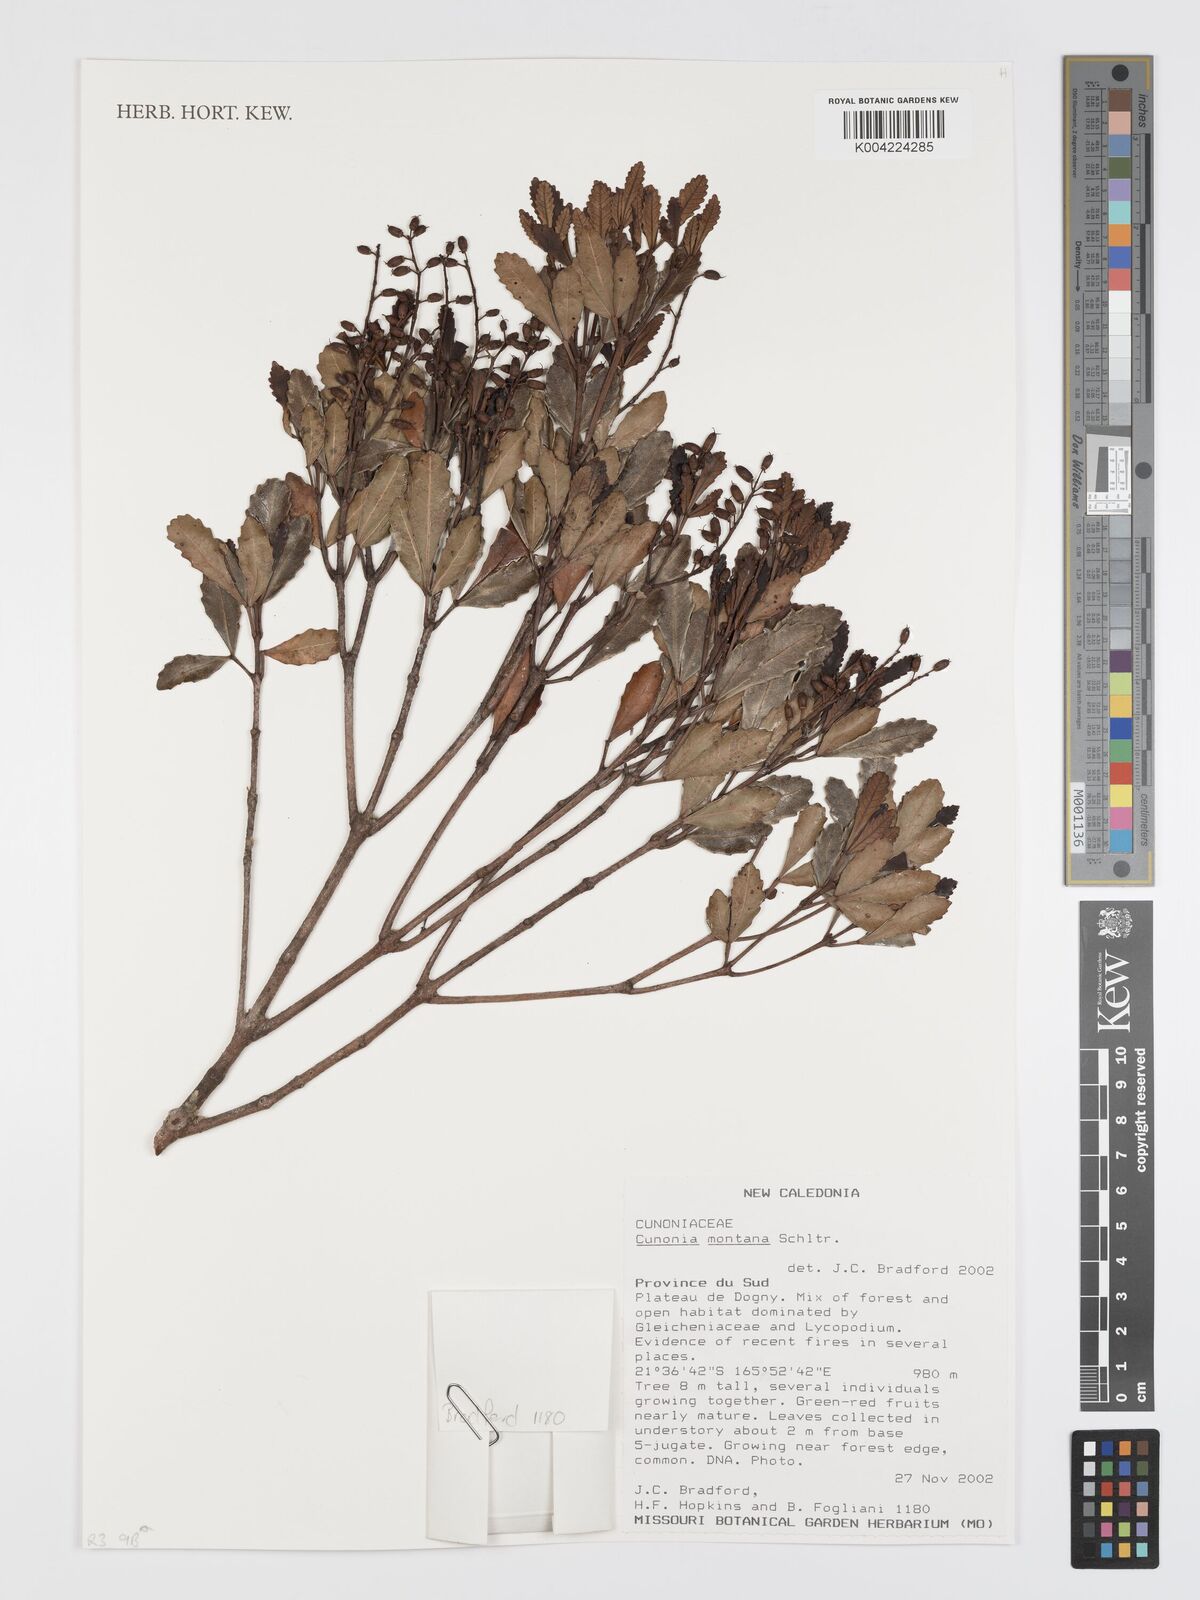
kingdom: Plantae
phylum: Tracheophyta
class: Magnoliopsida
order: Oxalidales
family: Cunoniaceae
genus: Cunonia
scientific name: Cunonia montana
